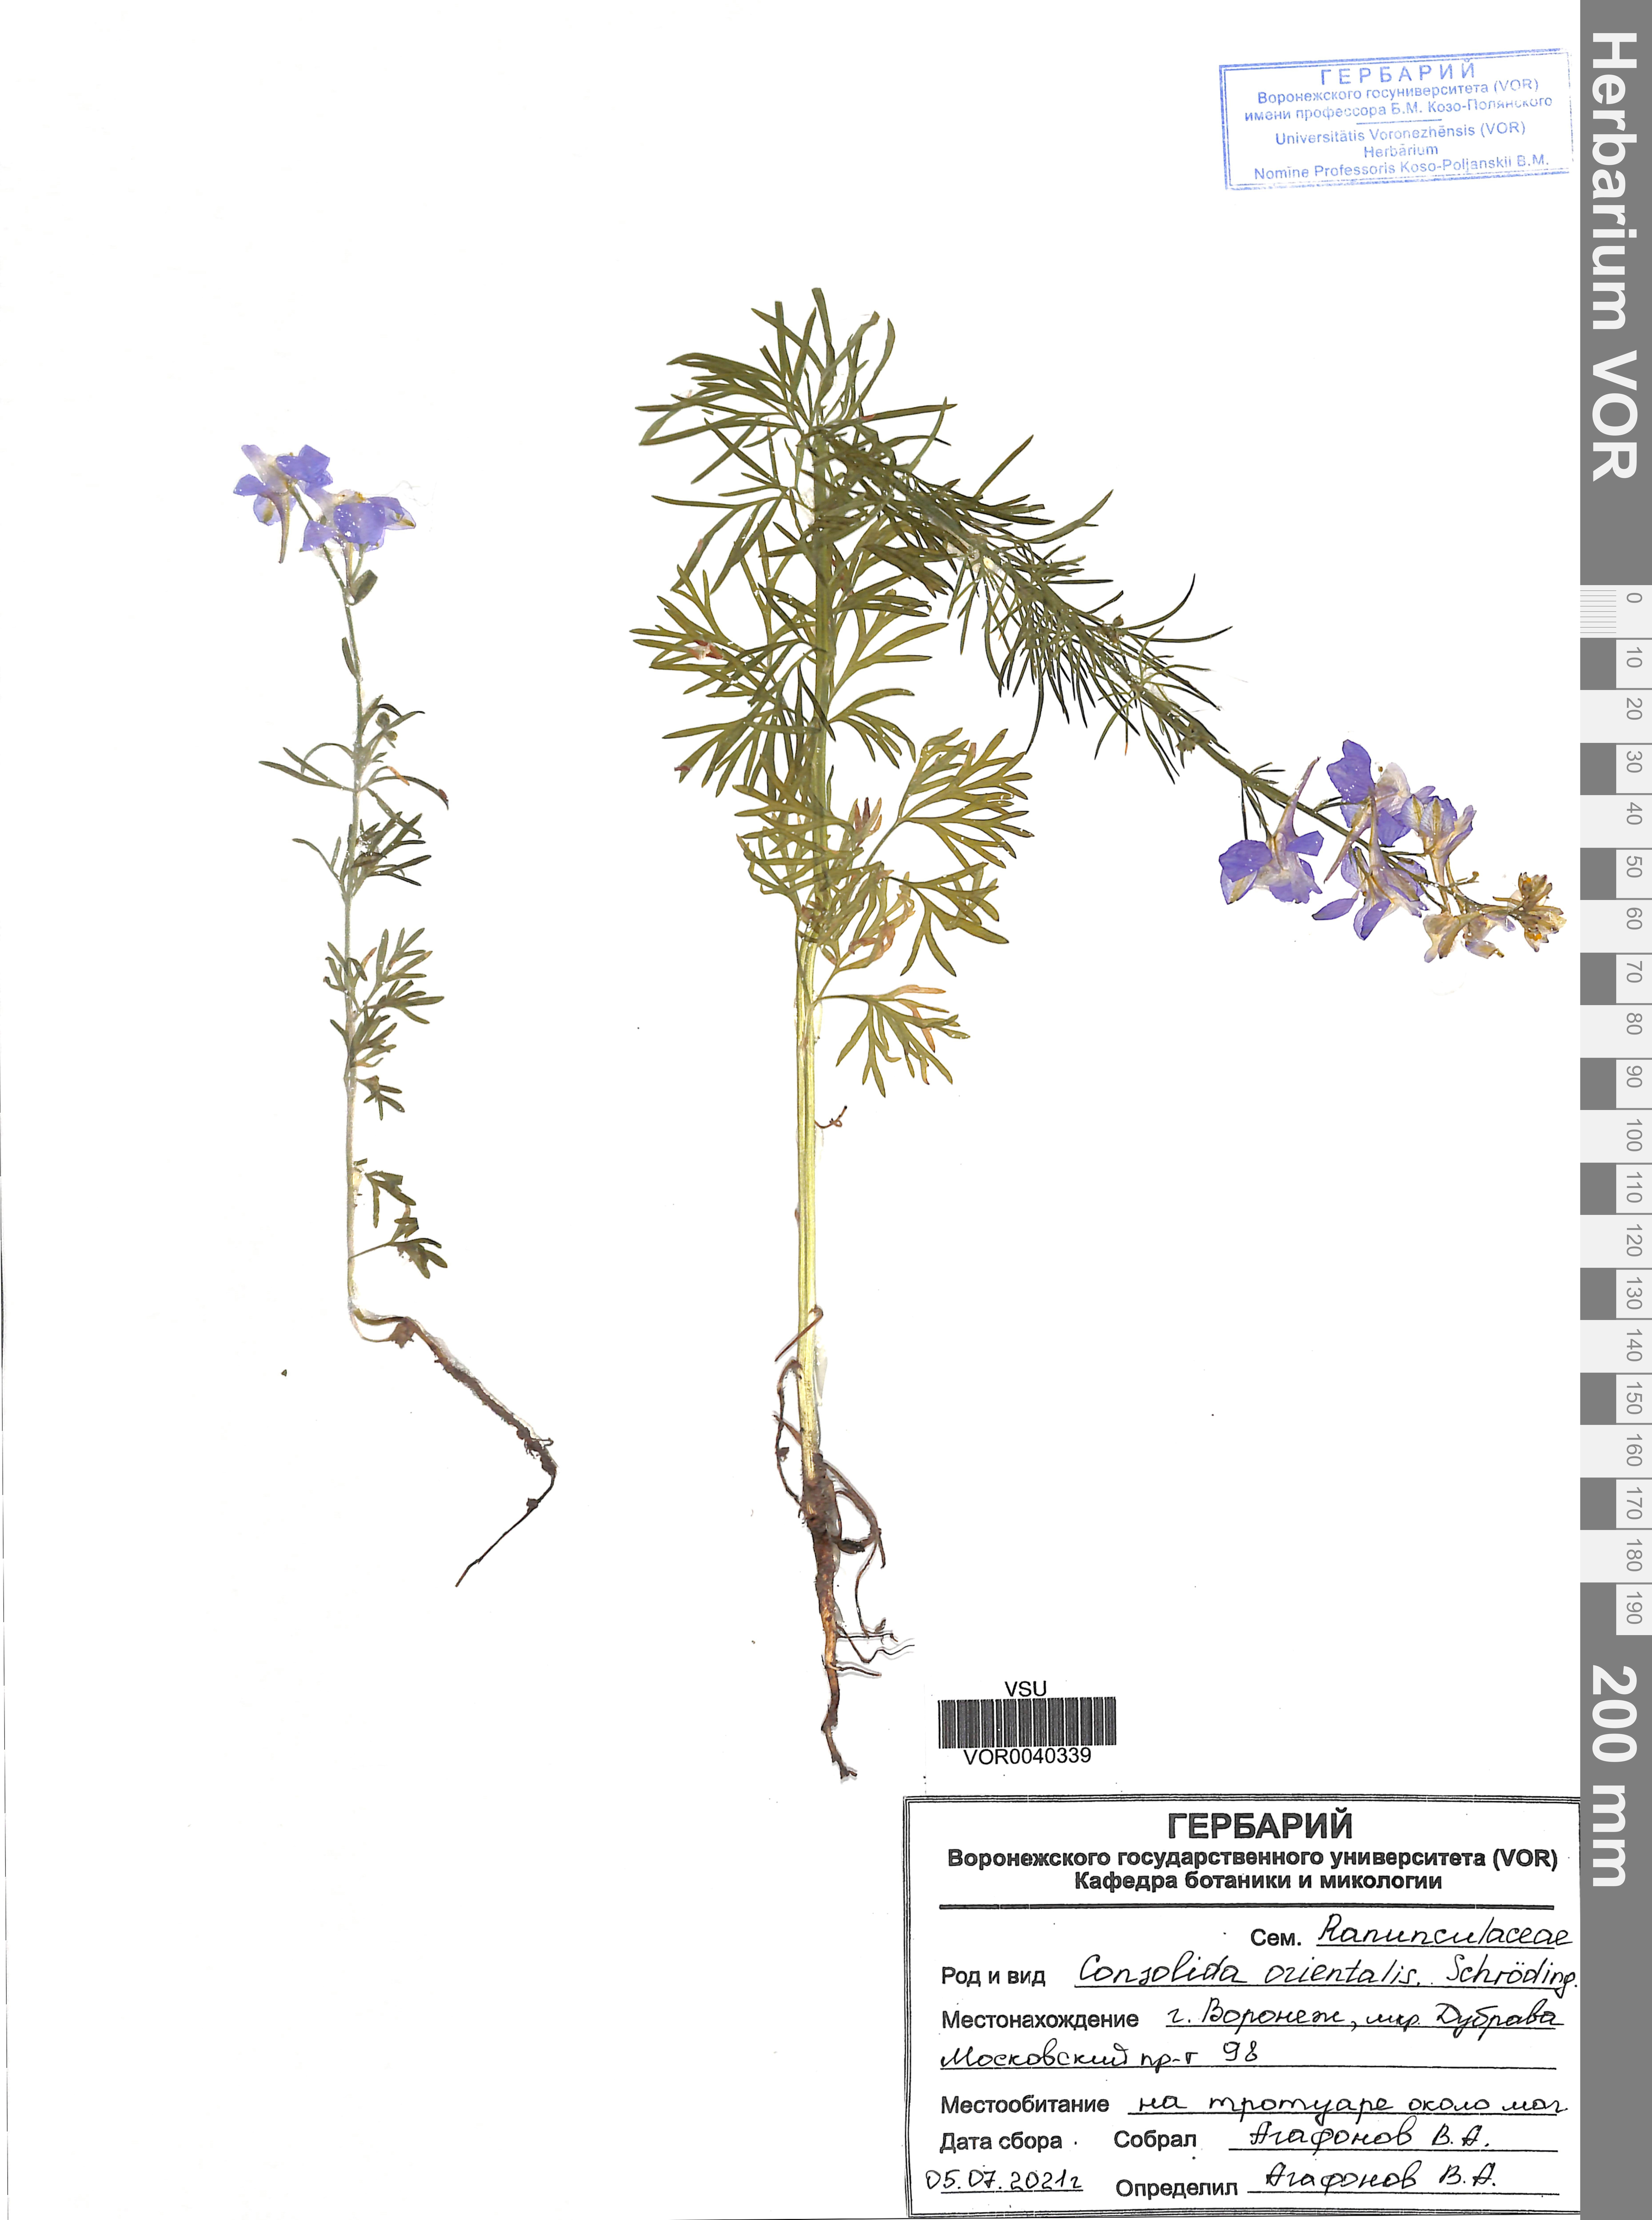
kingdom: Plantae
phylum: Tracheophyta
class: Magnoliopsida
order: Ranunculales
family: Ranunculaceae
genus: Delphinium
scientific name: Delphinium ajacis
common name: Doubtful knight's-spur
